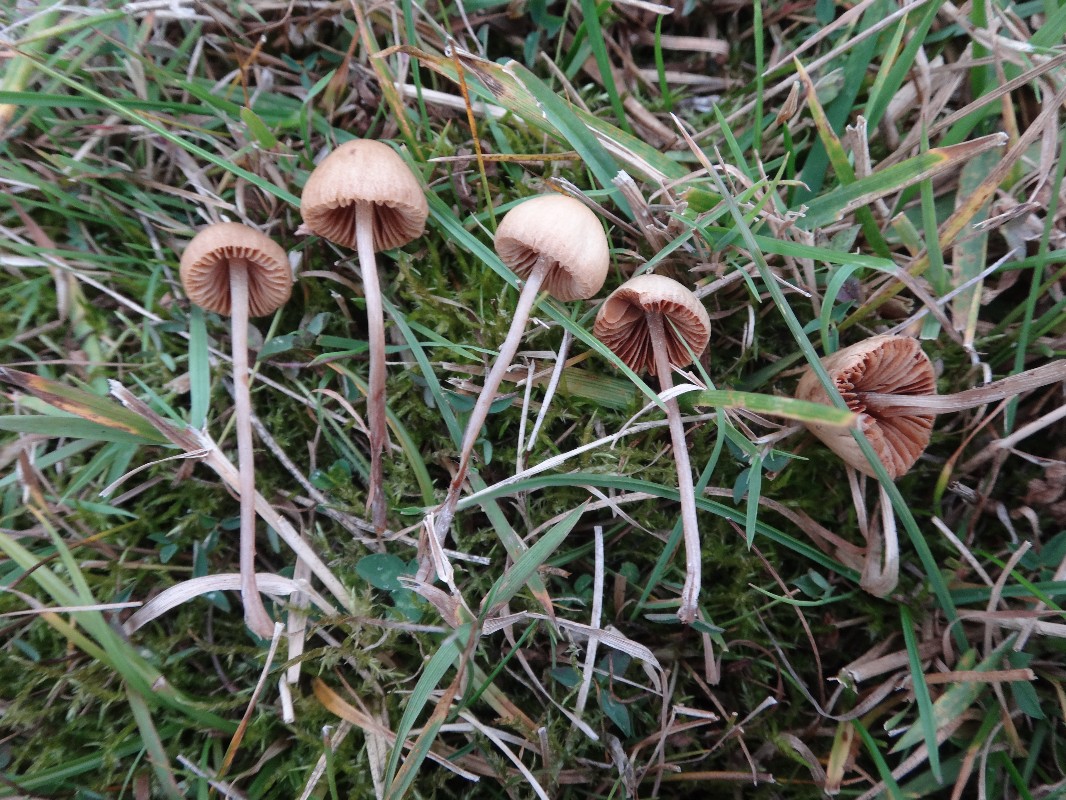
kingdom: Fungi
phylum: Basidiomycota
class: Agaricomycetes
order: Agaricales
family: Bolbitiaceae
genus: Conocybe
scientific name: Conocybe macrospora
